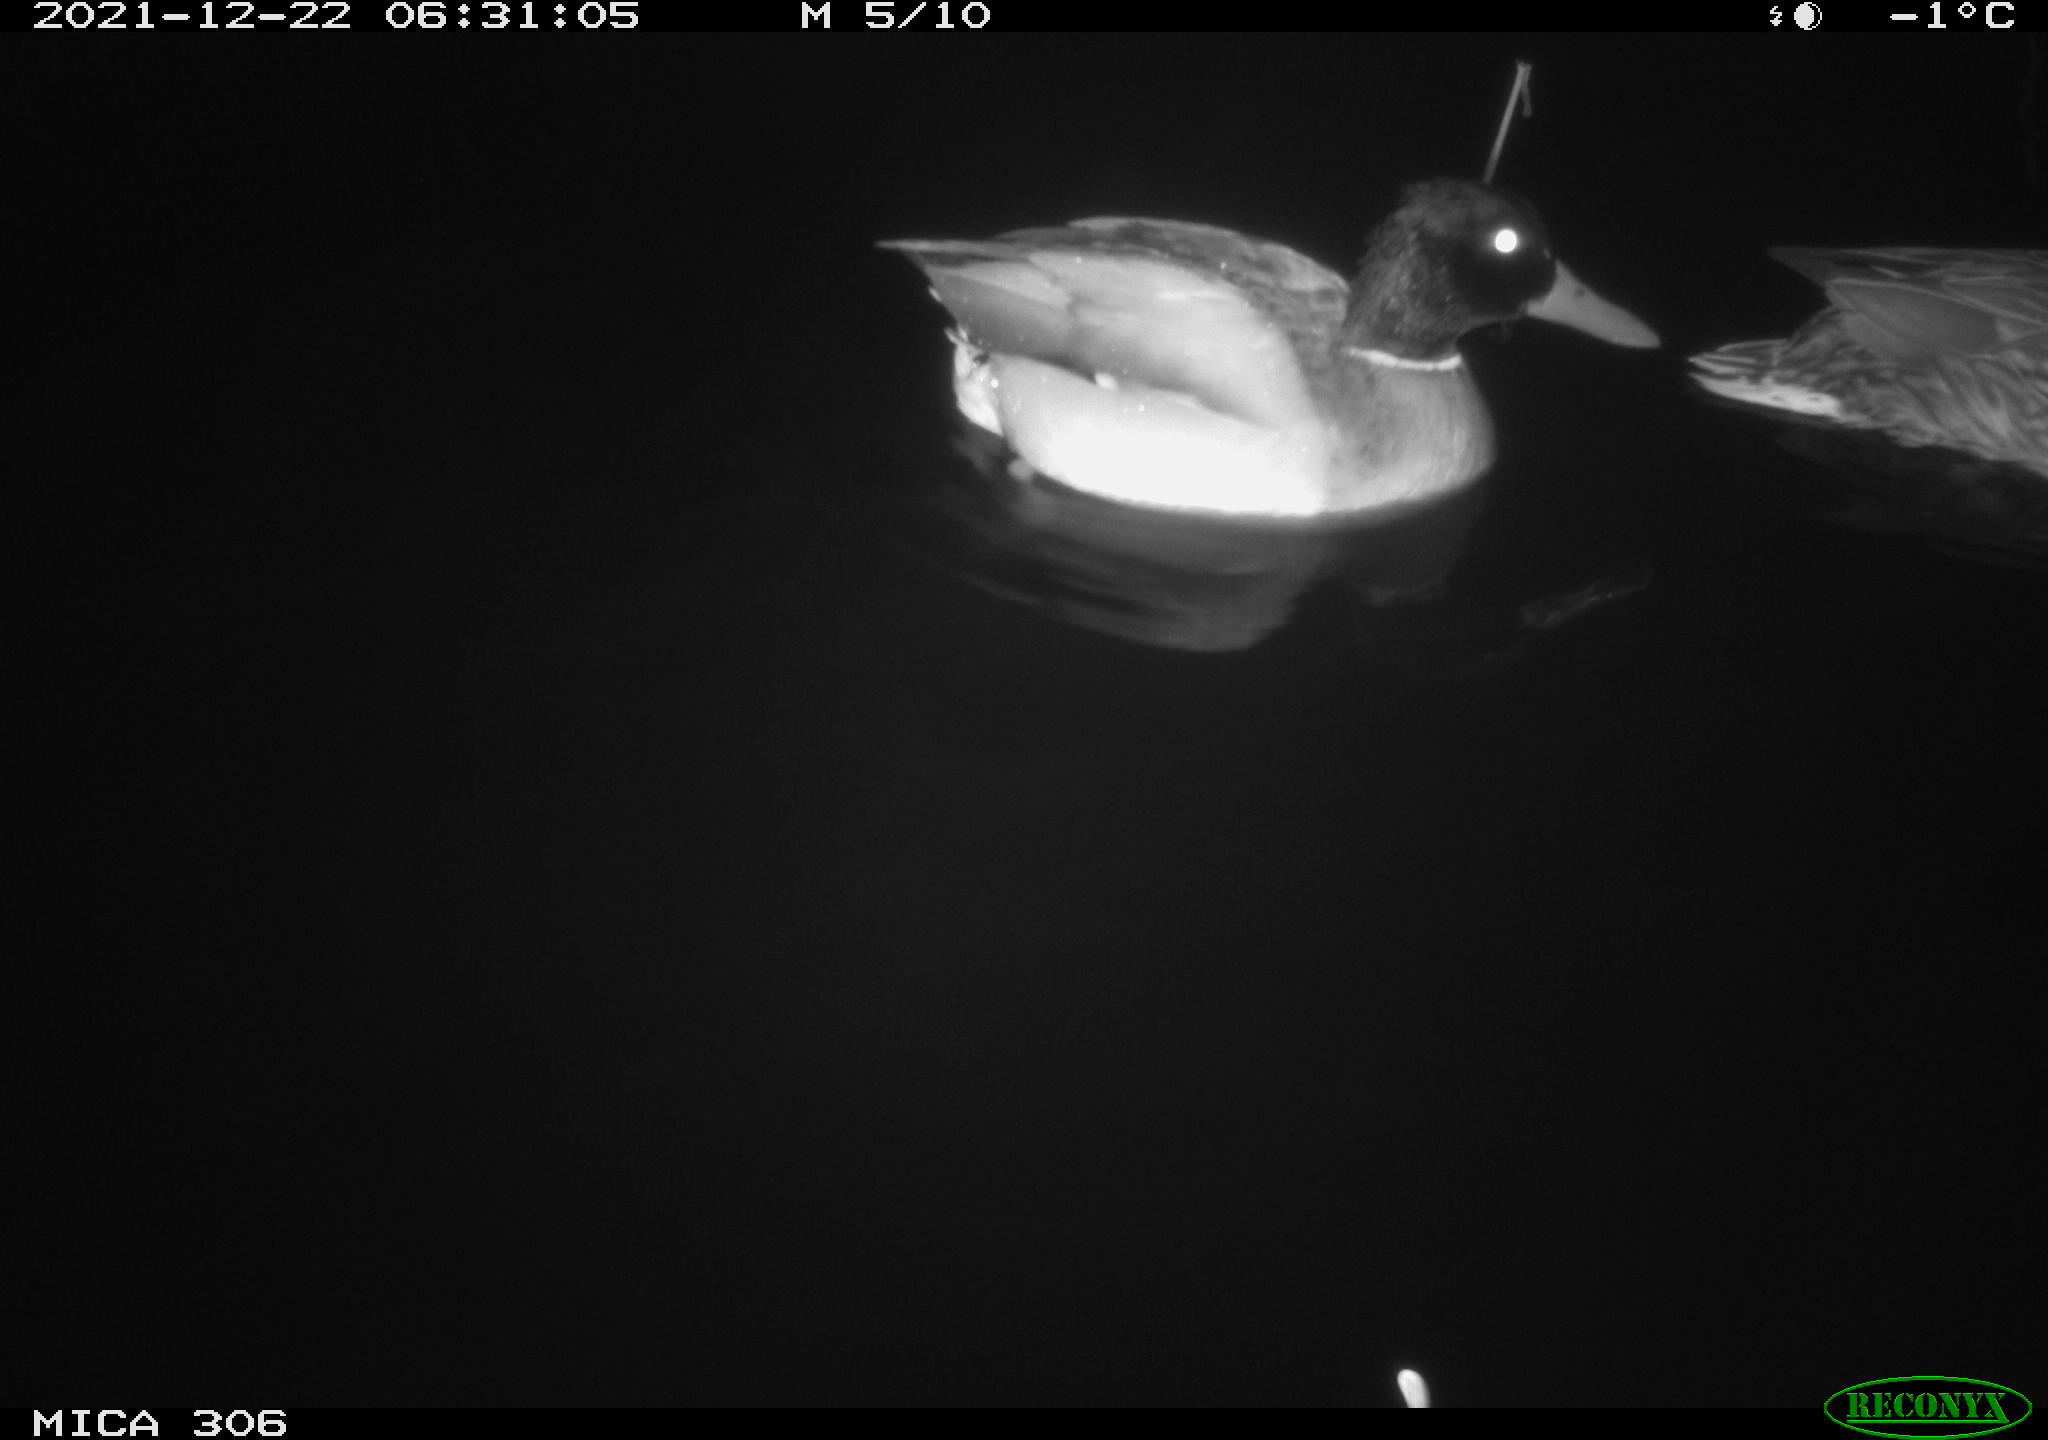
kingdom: Animalia
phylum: Chordata
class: Aves
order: Anseriformes
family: Anatidae
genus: Anas
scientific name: Anas
